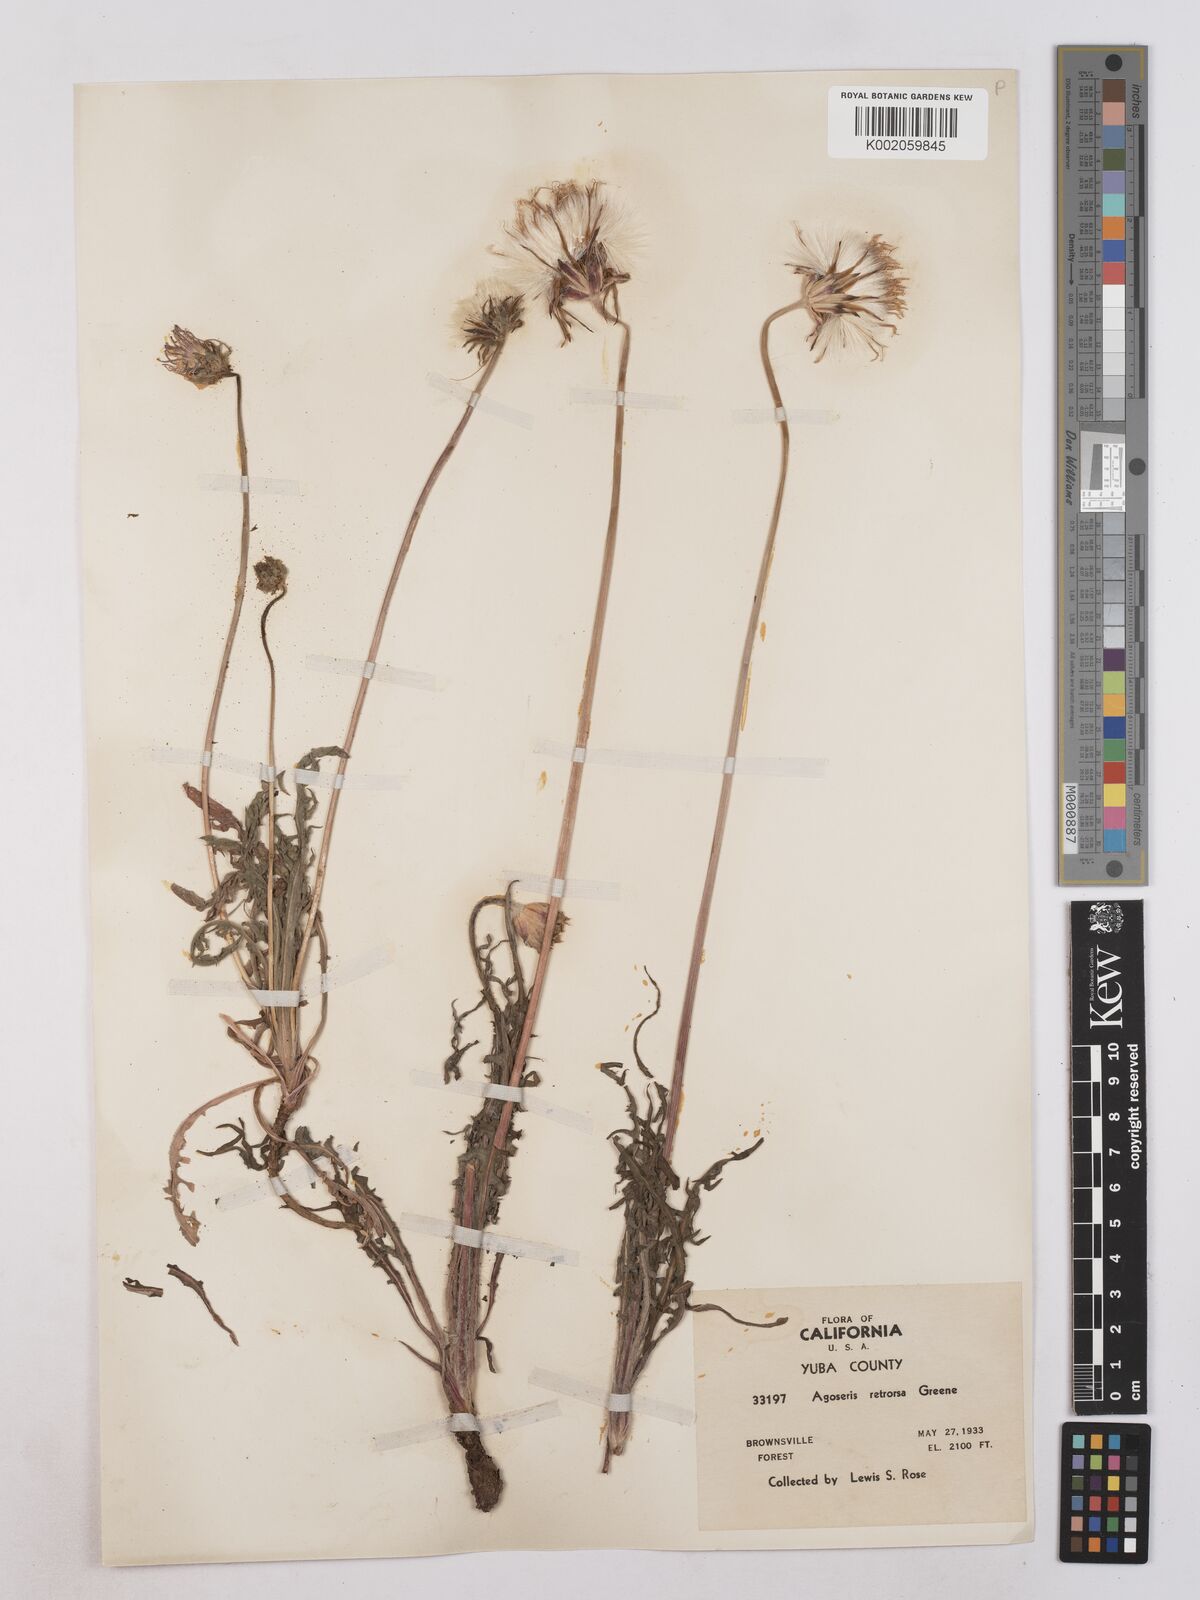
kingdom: Plantae
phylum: Tracheophyta
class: Magnoliopsida
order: Asterales
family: Asteraceae
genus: Agoseris
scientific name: Agoseris retrorsa
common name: Spearleaf agoseris
